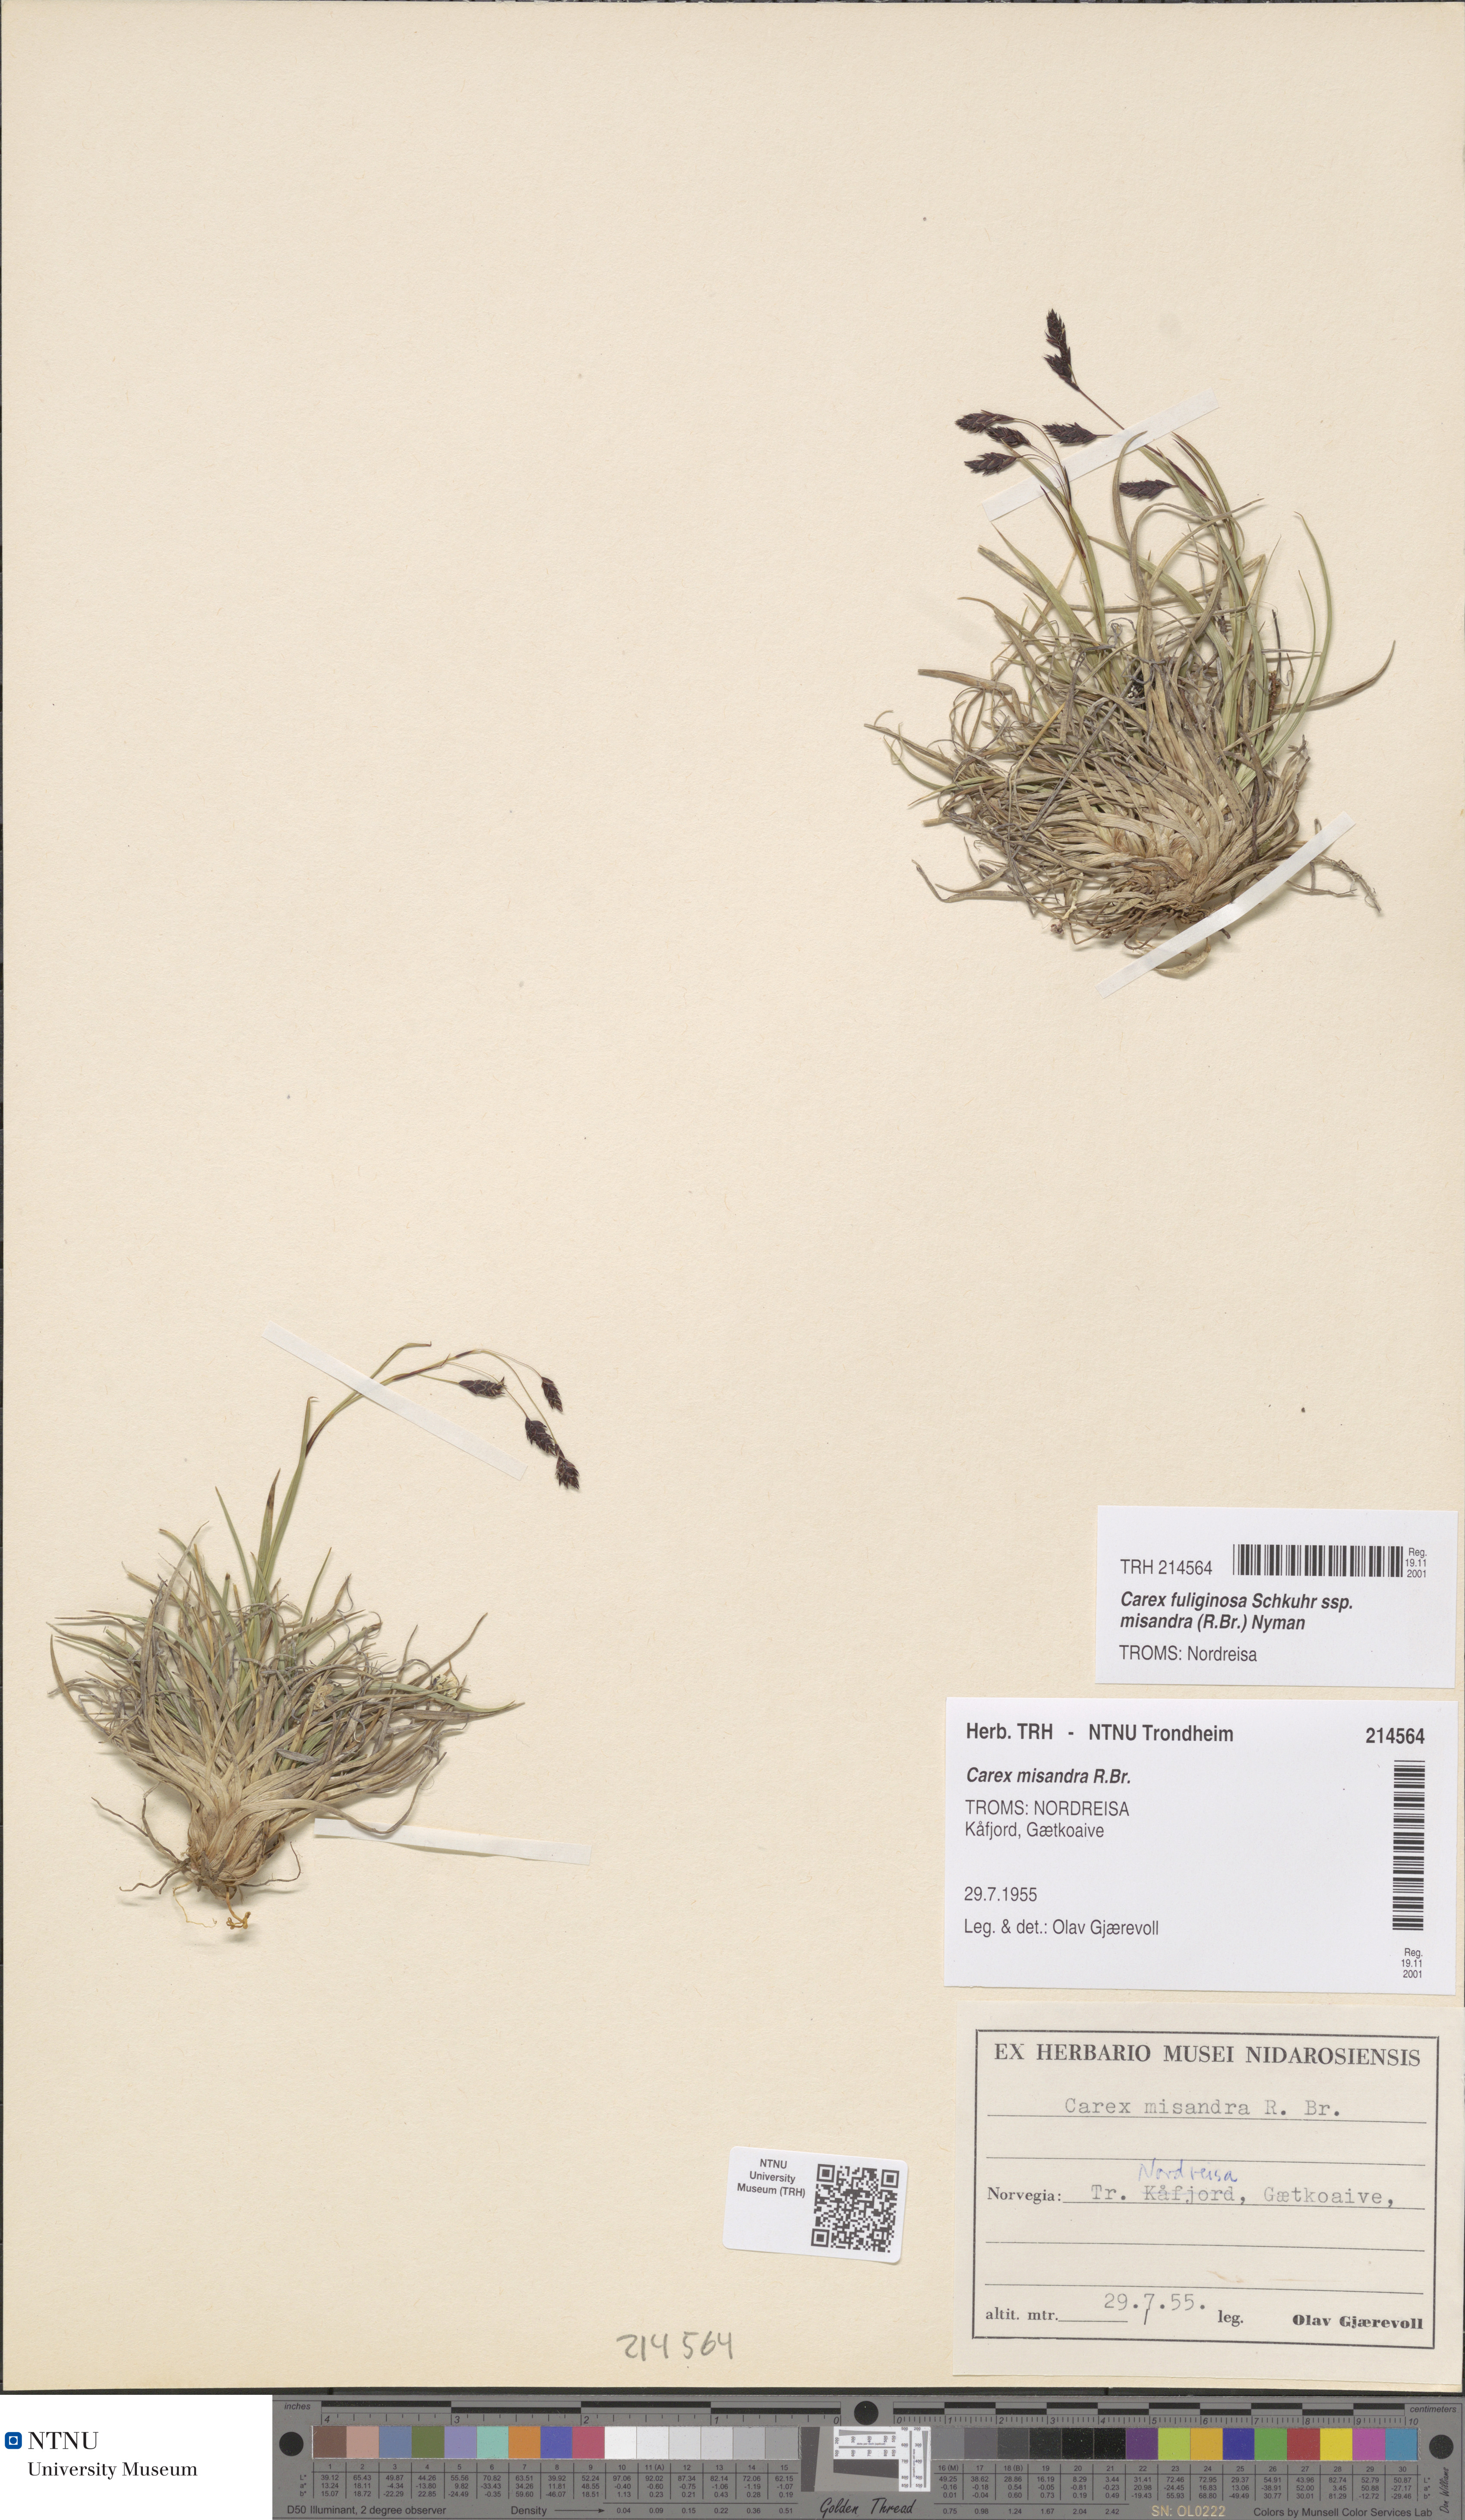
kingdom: Plantae
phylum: Tracheophyta
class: Liliopsida
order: Poales
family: Cyperaceae
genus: Carex
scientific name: Carex fuliginosa
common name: Few-flowered sedge
